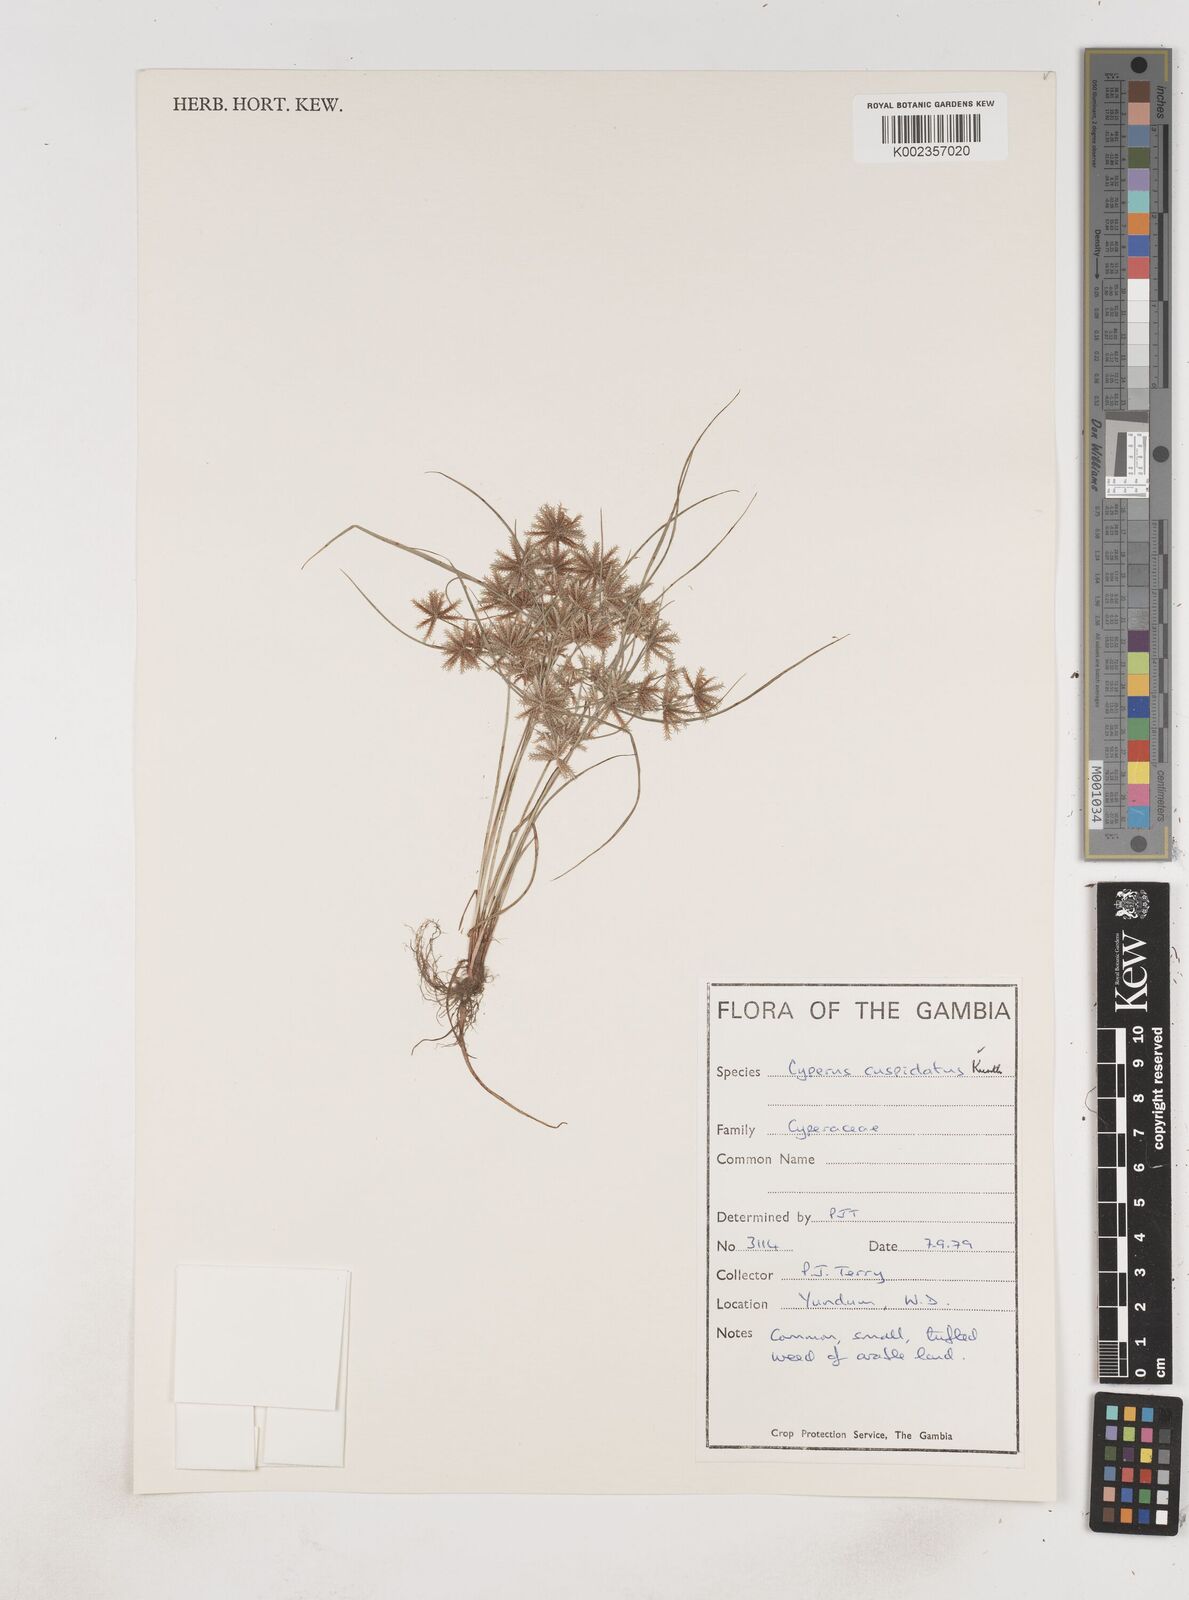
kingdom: Plantae
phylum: Tracheophyta
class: Liliopsida
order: Poales
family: Cyperaceae
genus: Cyperus
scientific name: Cyperus
